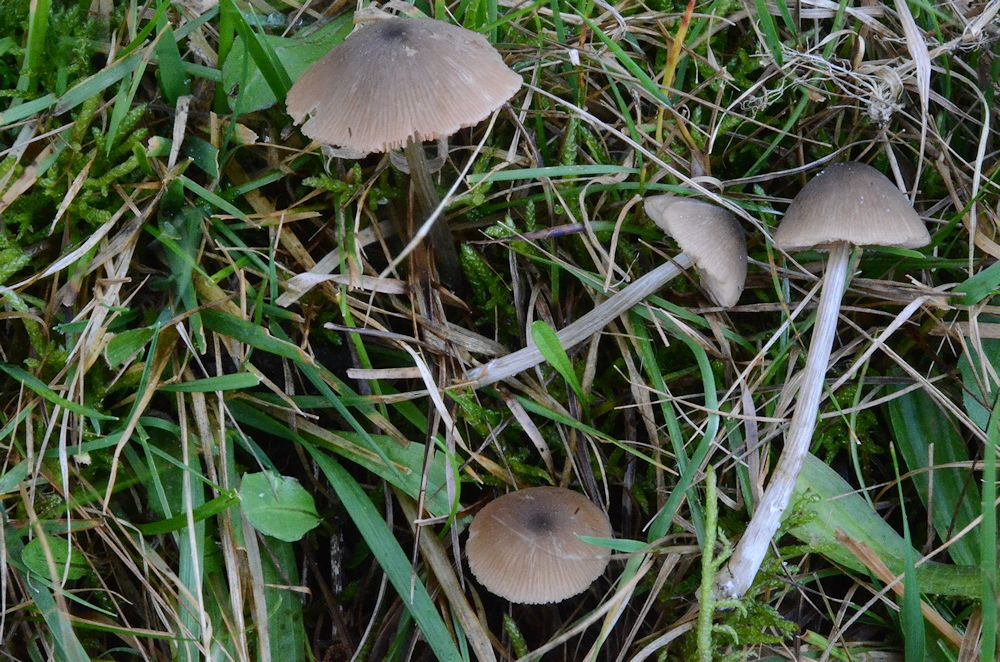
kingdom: Fungi
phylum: Basidiomycota
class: Agaricomycetes
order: Agaricales
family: Entolomataceae
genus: Entoloma
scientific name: Entoloma conferendum
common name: stjernesporet rødblad
